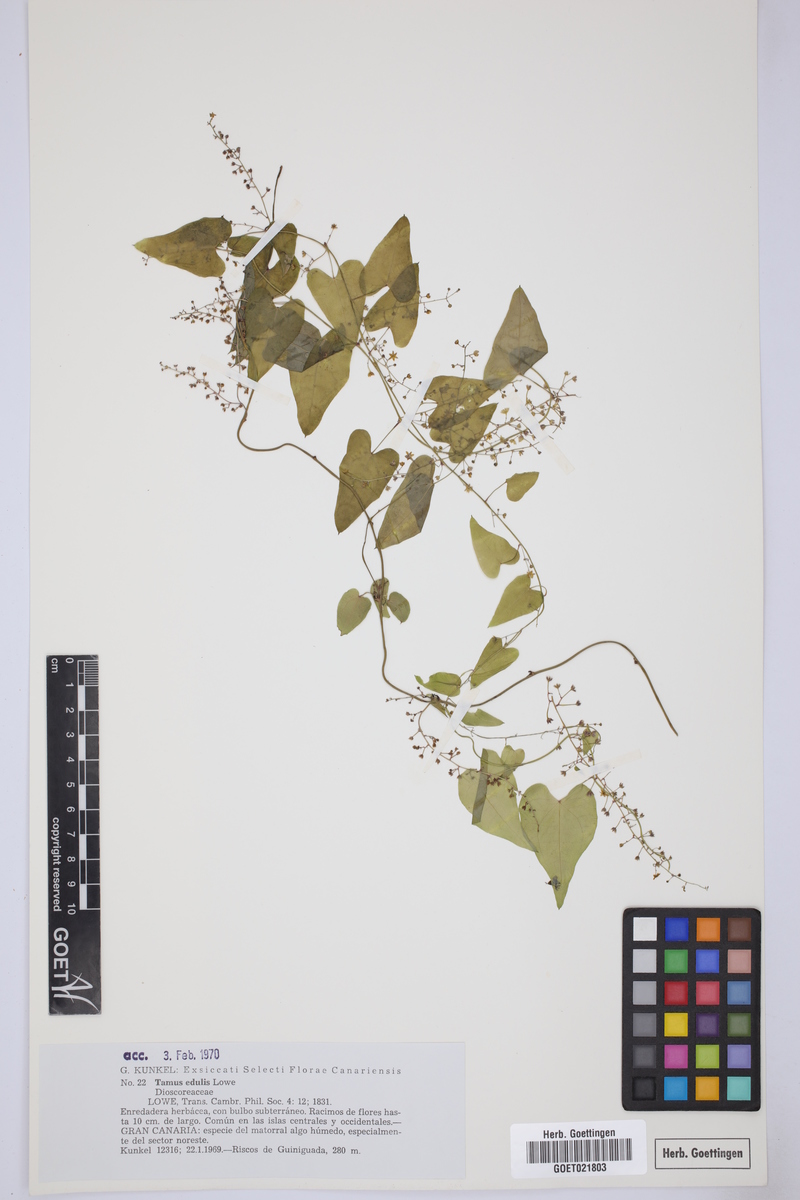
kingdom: Plantae
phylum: Tracheophyta
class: Liliopsida
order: Dioscoreales
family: Dioscoreaceae
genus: Dioscorea
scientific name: Dioscorea communis
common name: Black-bindweed
